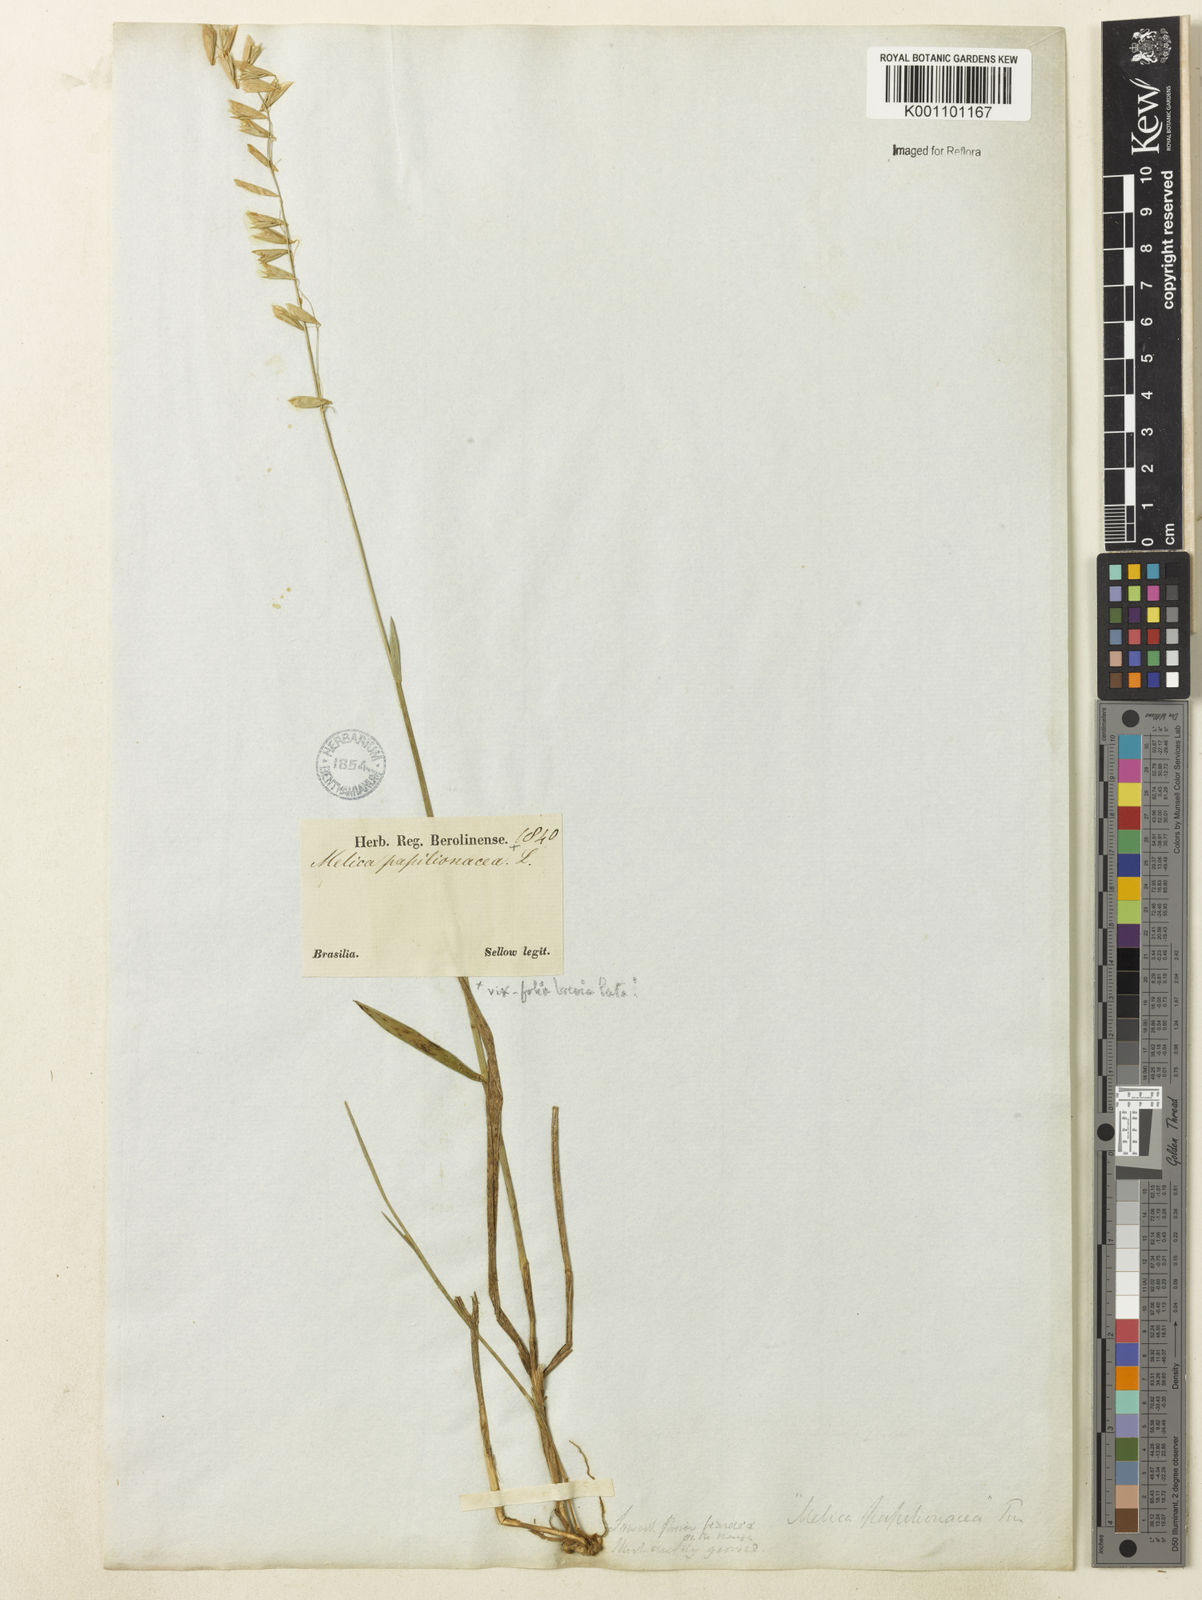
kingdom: Plantae
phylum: Tracheophyta
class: Liliopsida
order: Poales
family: Poaceae
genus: Melica
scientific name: Melica brasiliana
